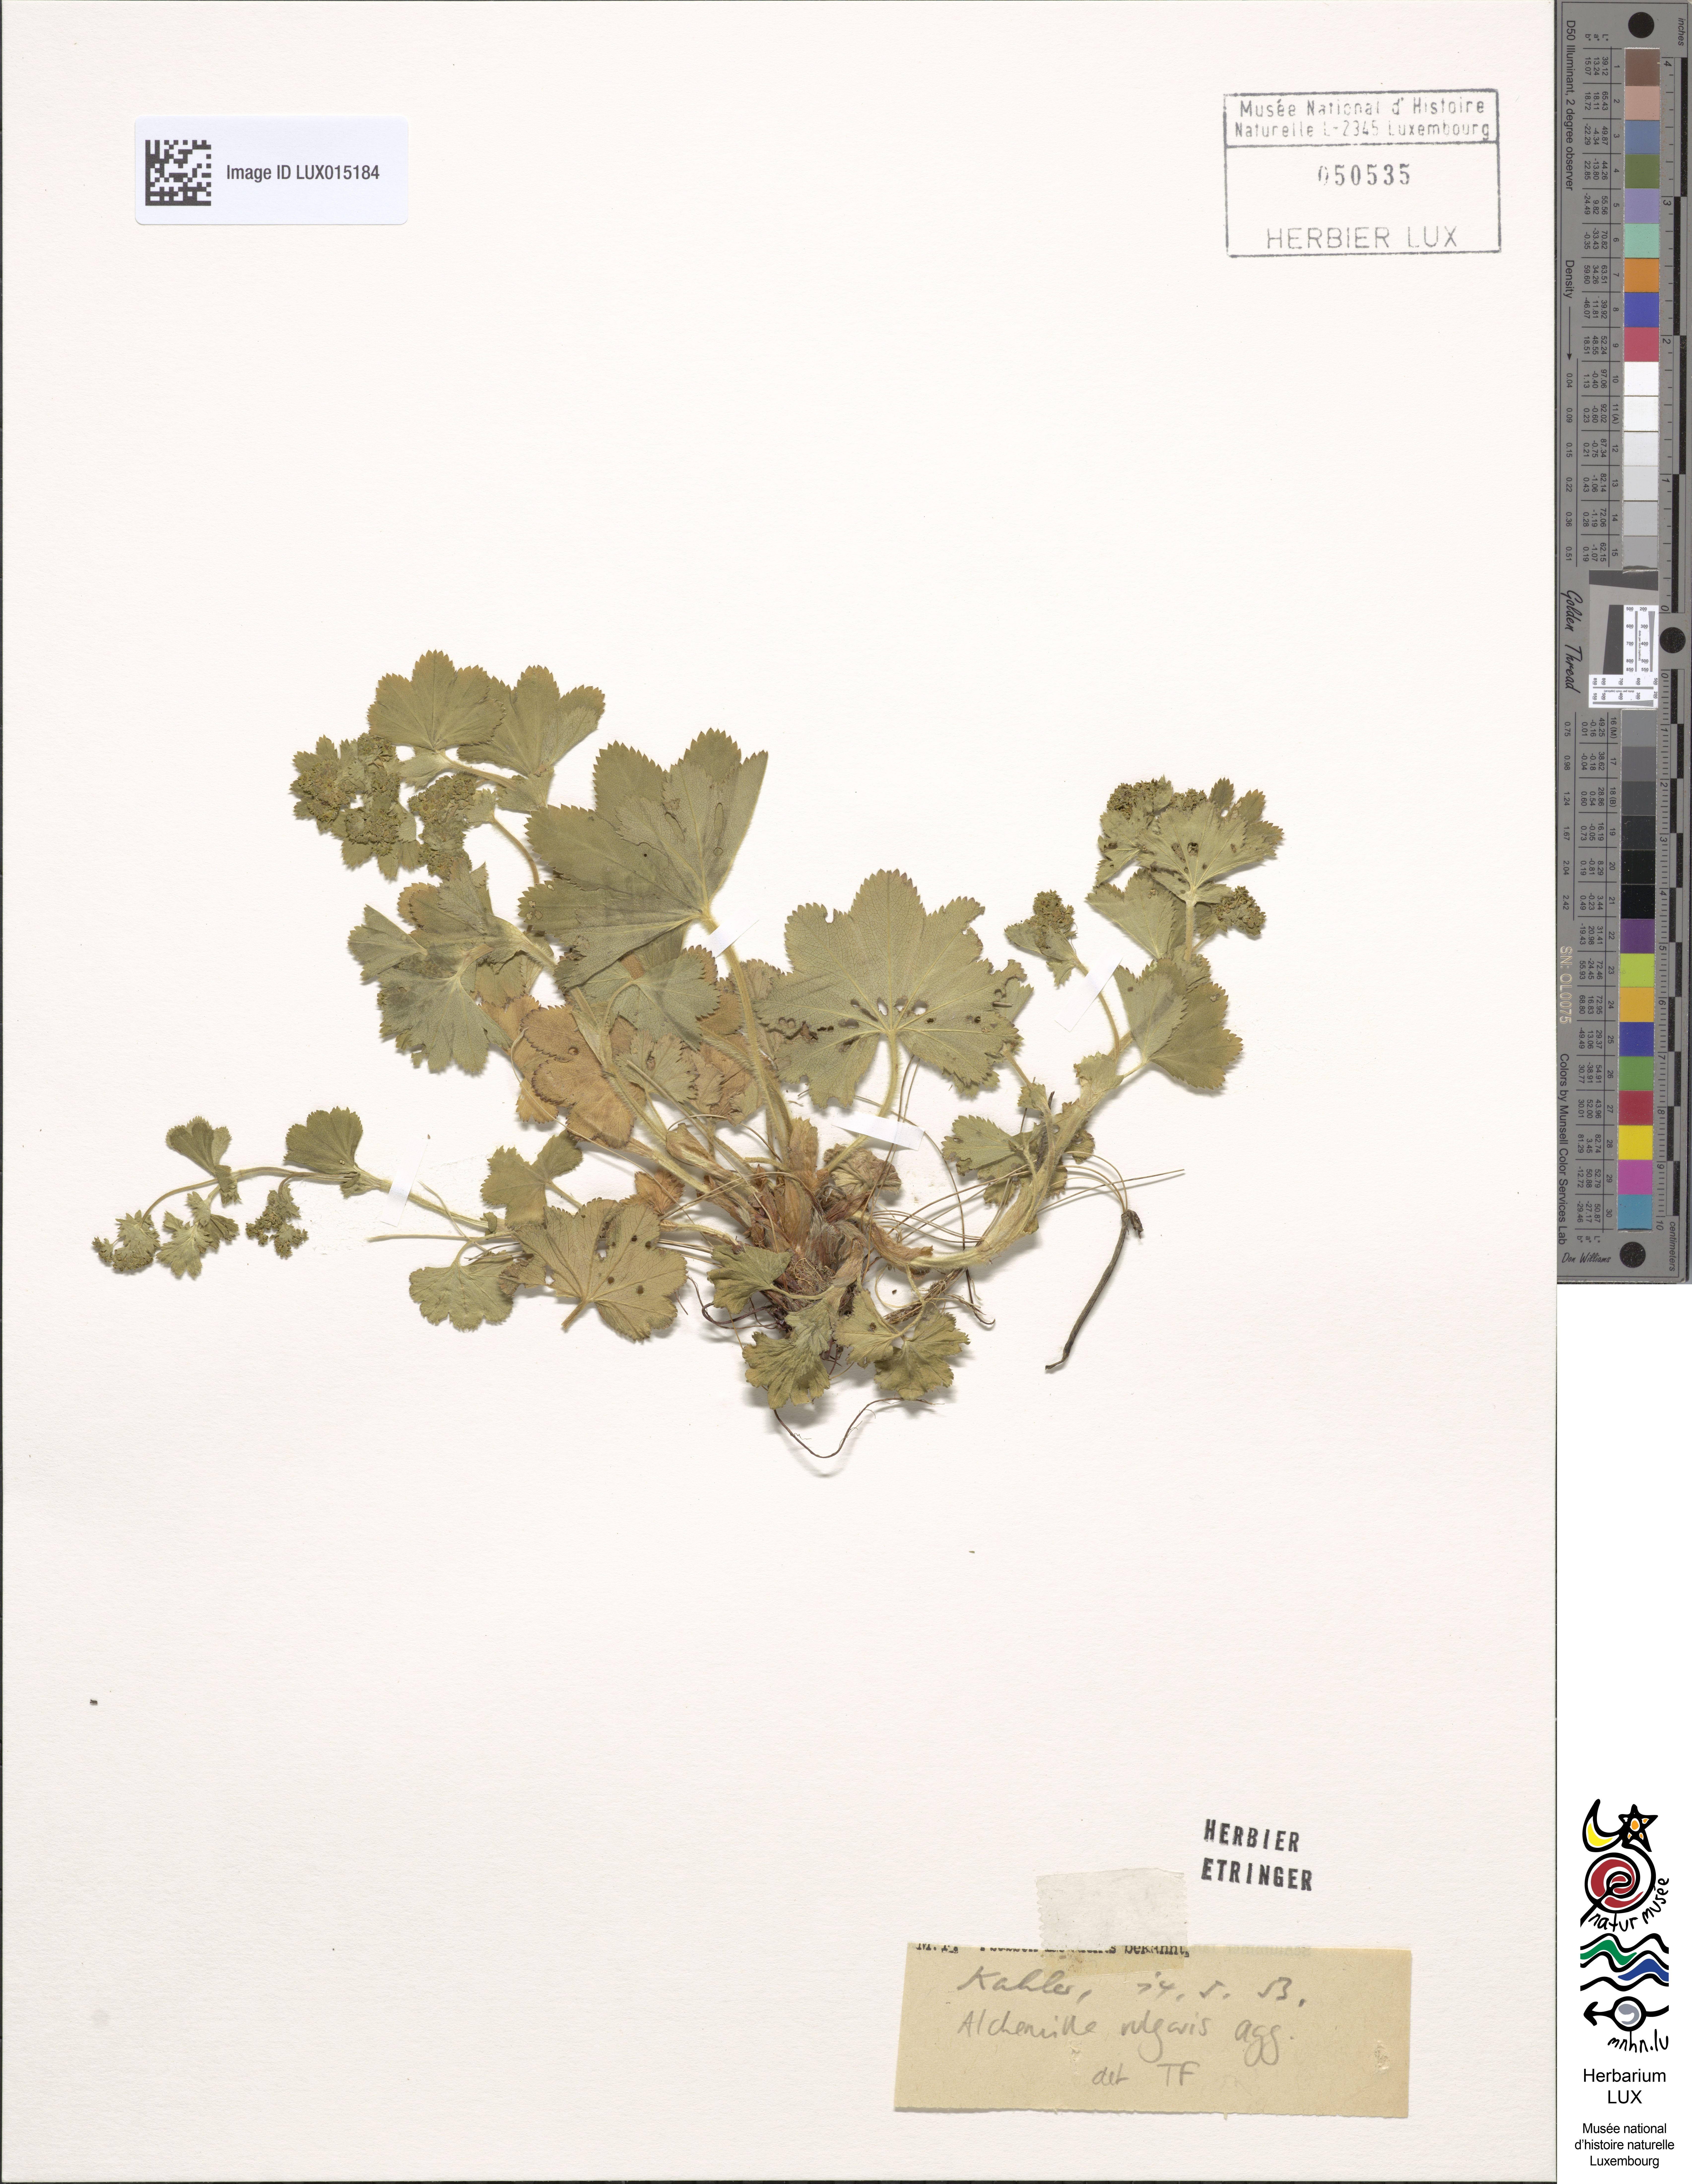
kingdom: Plantae
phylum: Tracheophyta
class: Magnoliopsida
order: Rosales
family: Rosaceae
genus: Alchemilla
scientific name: Alchemilla vulgaris
